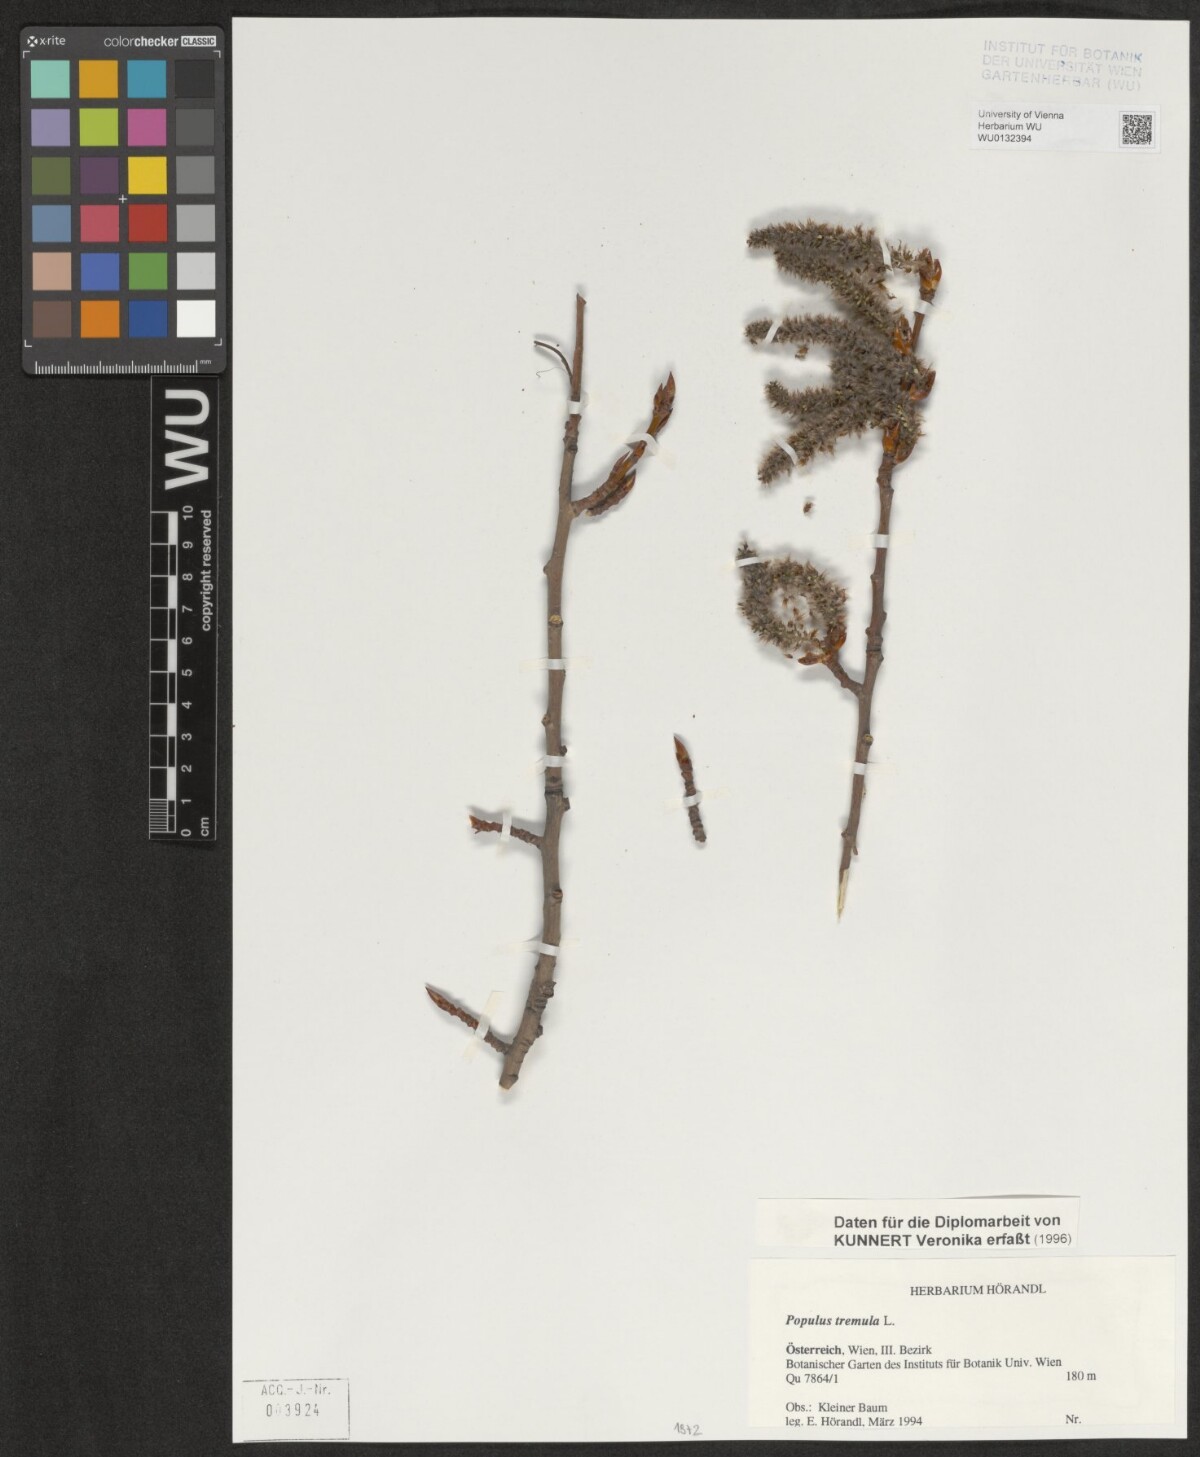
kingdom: Plantae
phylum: Tracheophyta
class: Magnoliopsida
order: Malpighiales
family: Salicaceae
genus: Populus
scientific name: Populus tremula
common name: European aspen
